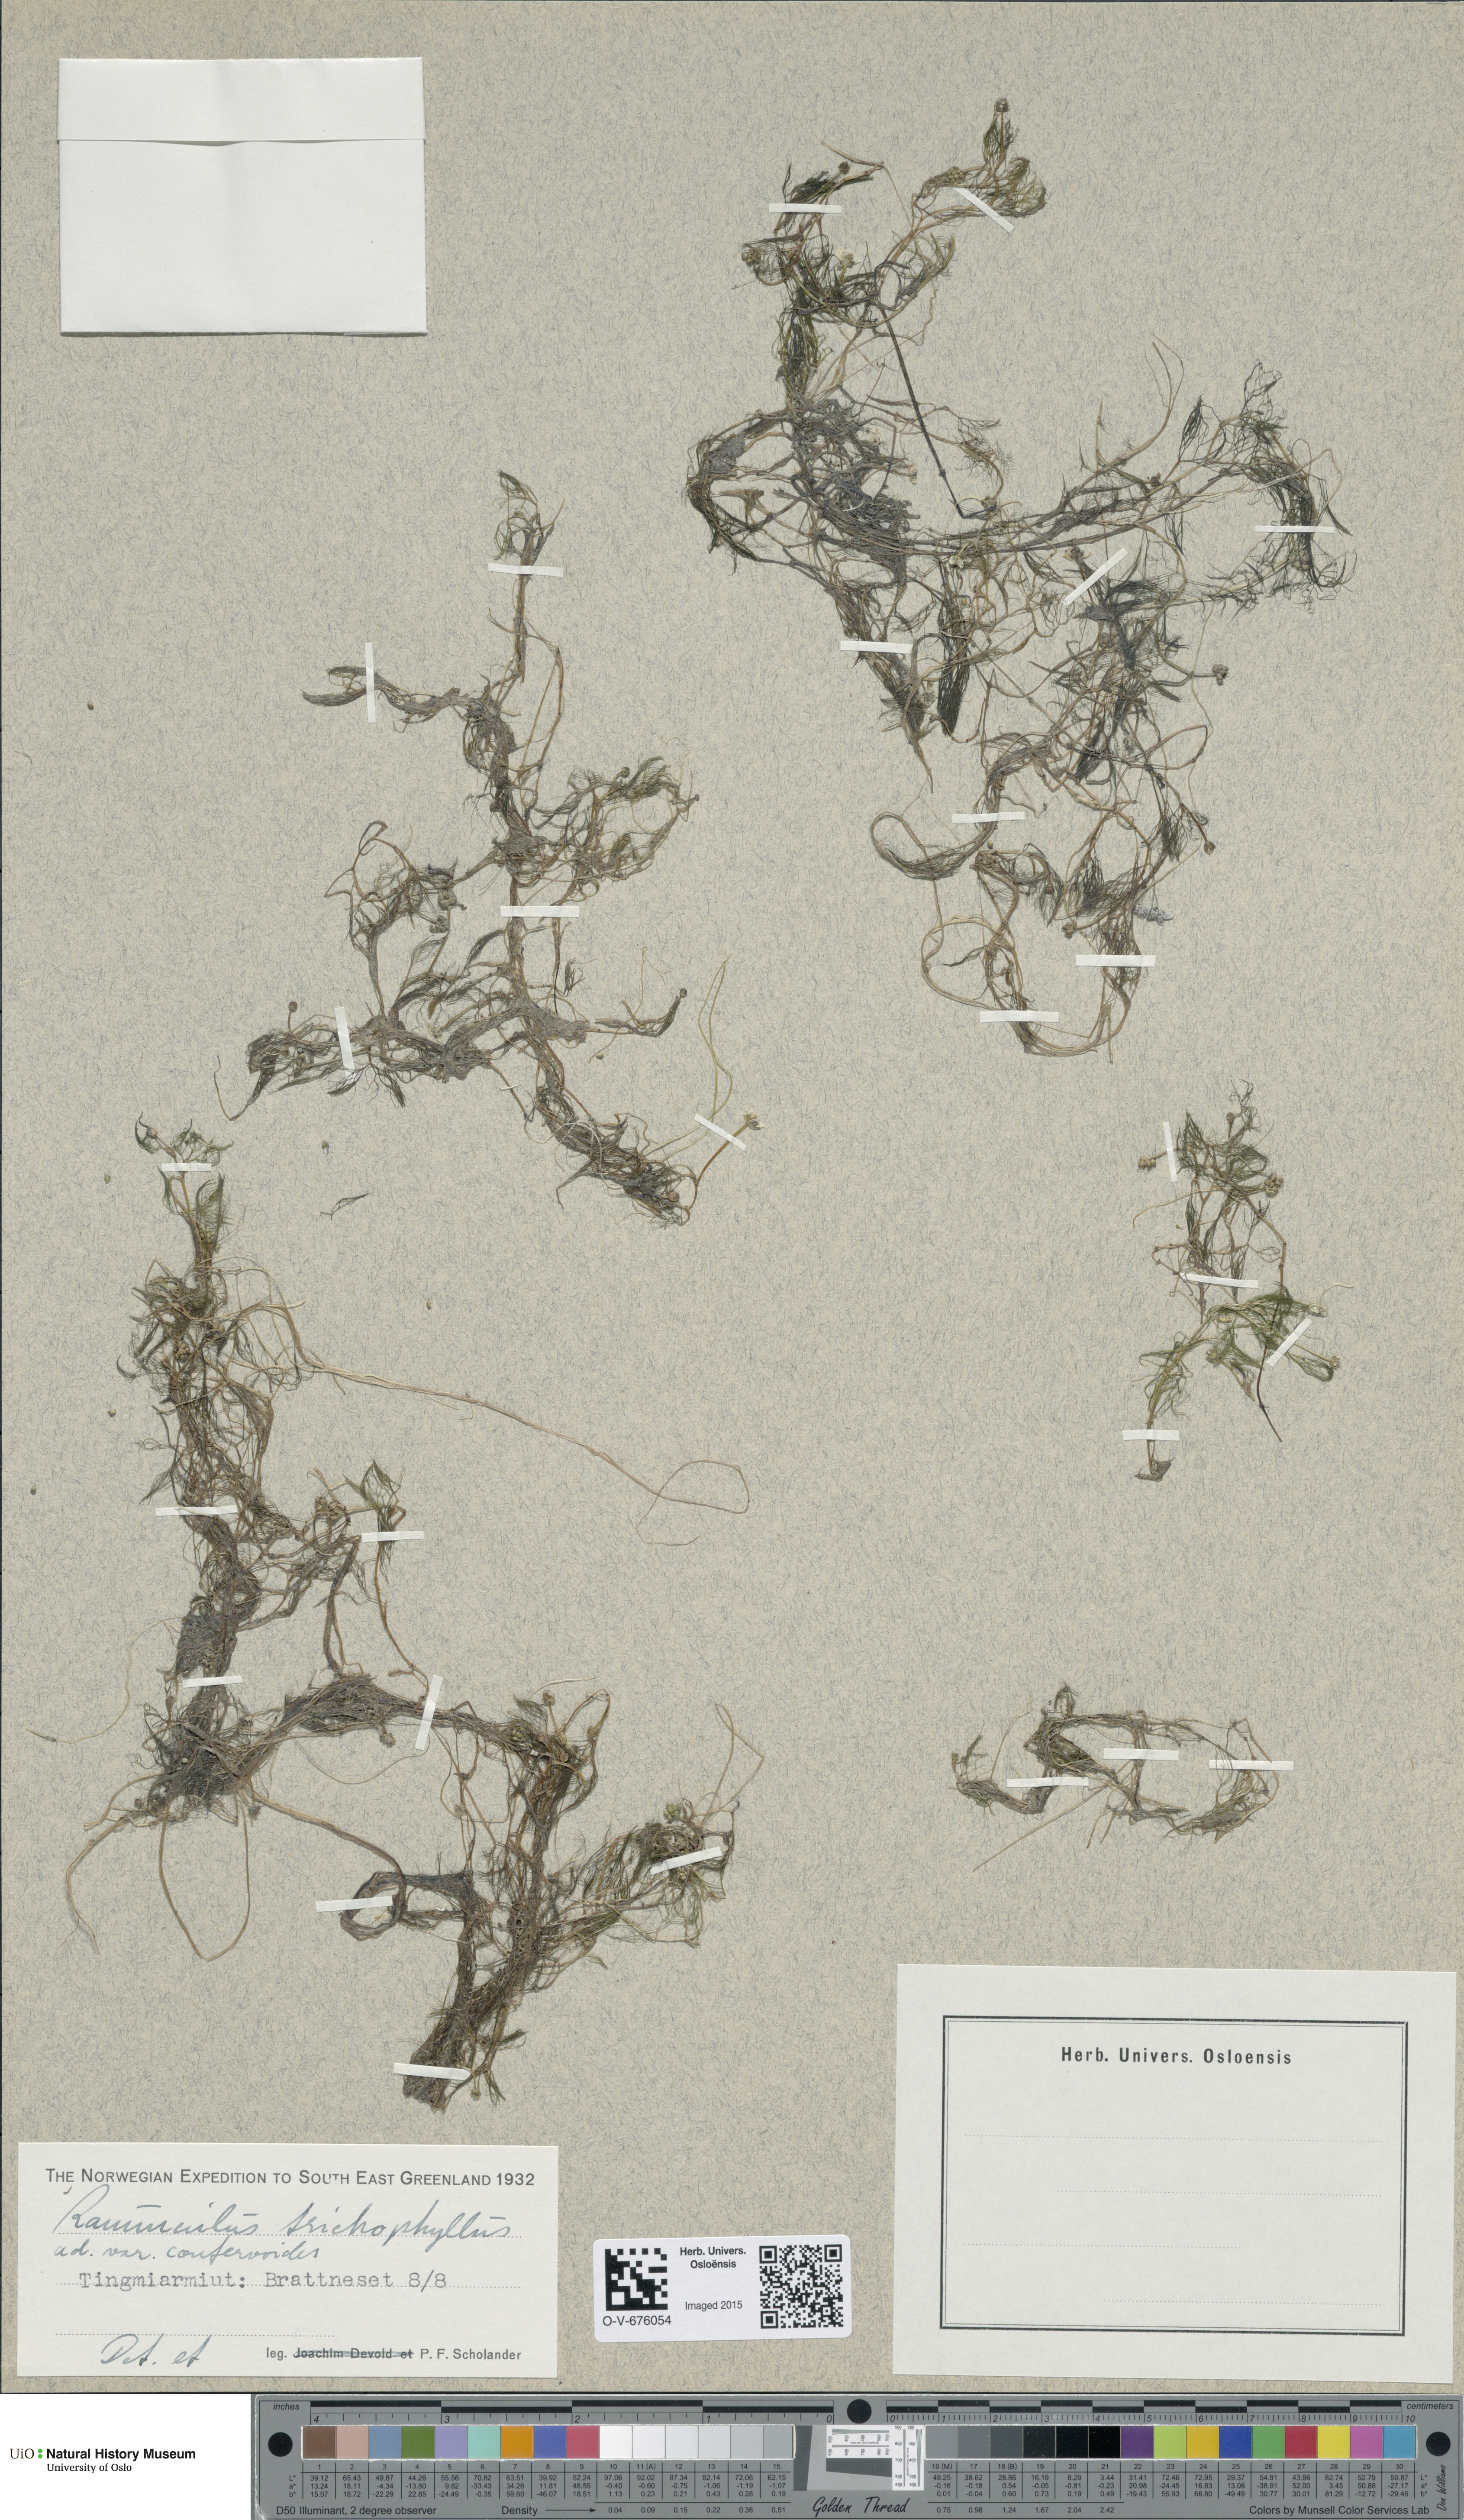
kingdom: Plantae
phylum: Tracheophyta
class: Magnoliopsida
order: Ranunculales
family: Ranunculaceae
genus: Ranunculus
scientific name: Ranunculus trichophyllus
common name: Thread-leaved water-crowfoot
